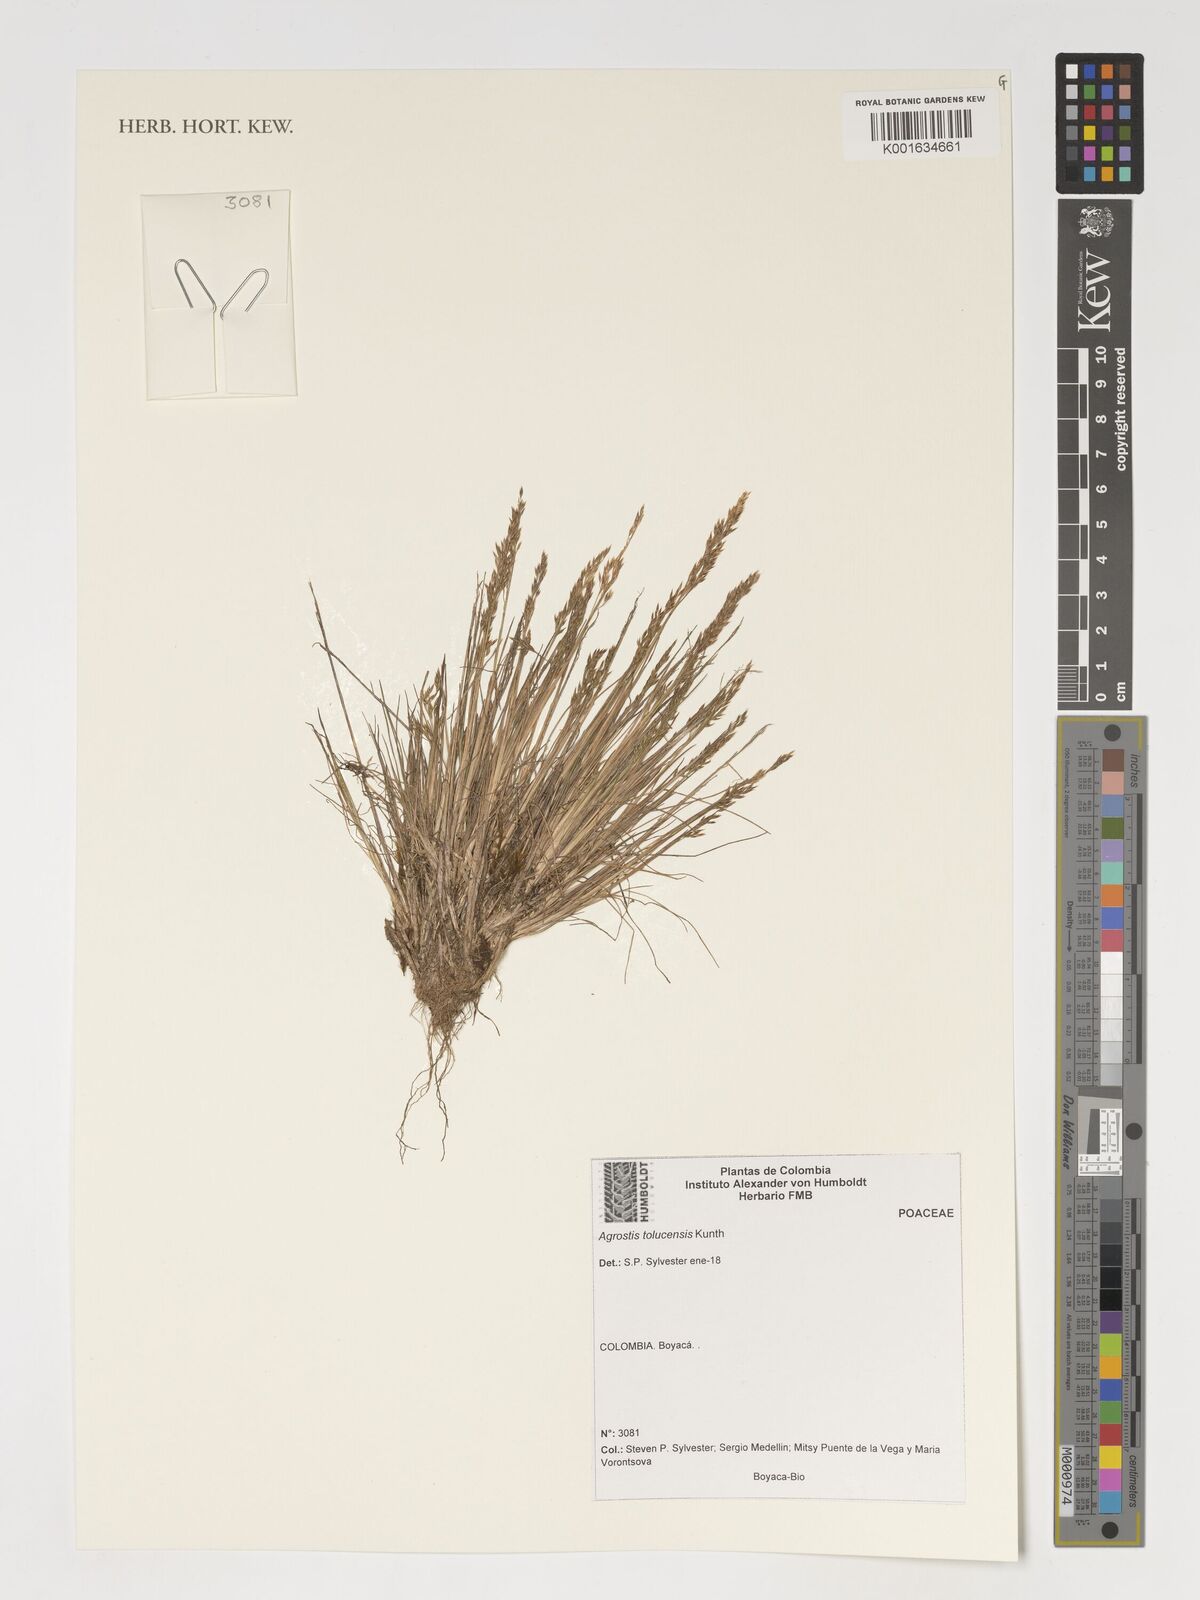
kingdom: Plantae
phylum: Tracheophyta
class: Liliopsida
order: Poales
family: Poaceae
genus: Agrostis
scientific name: Agrostis tolucensis
